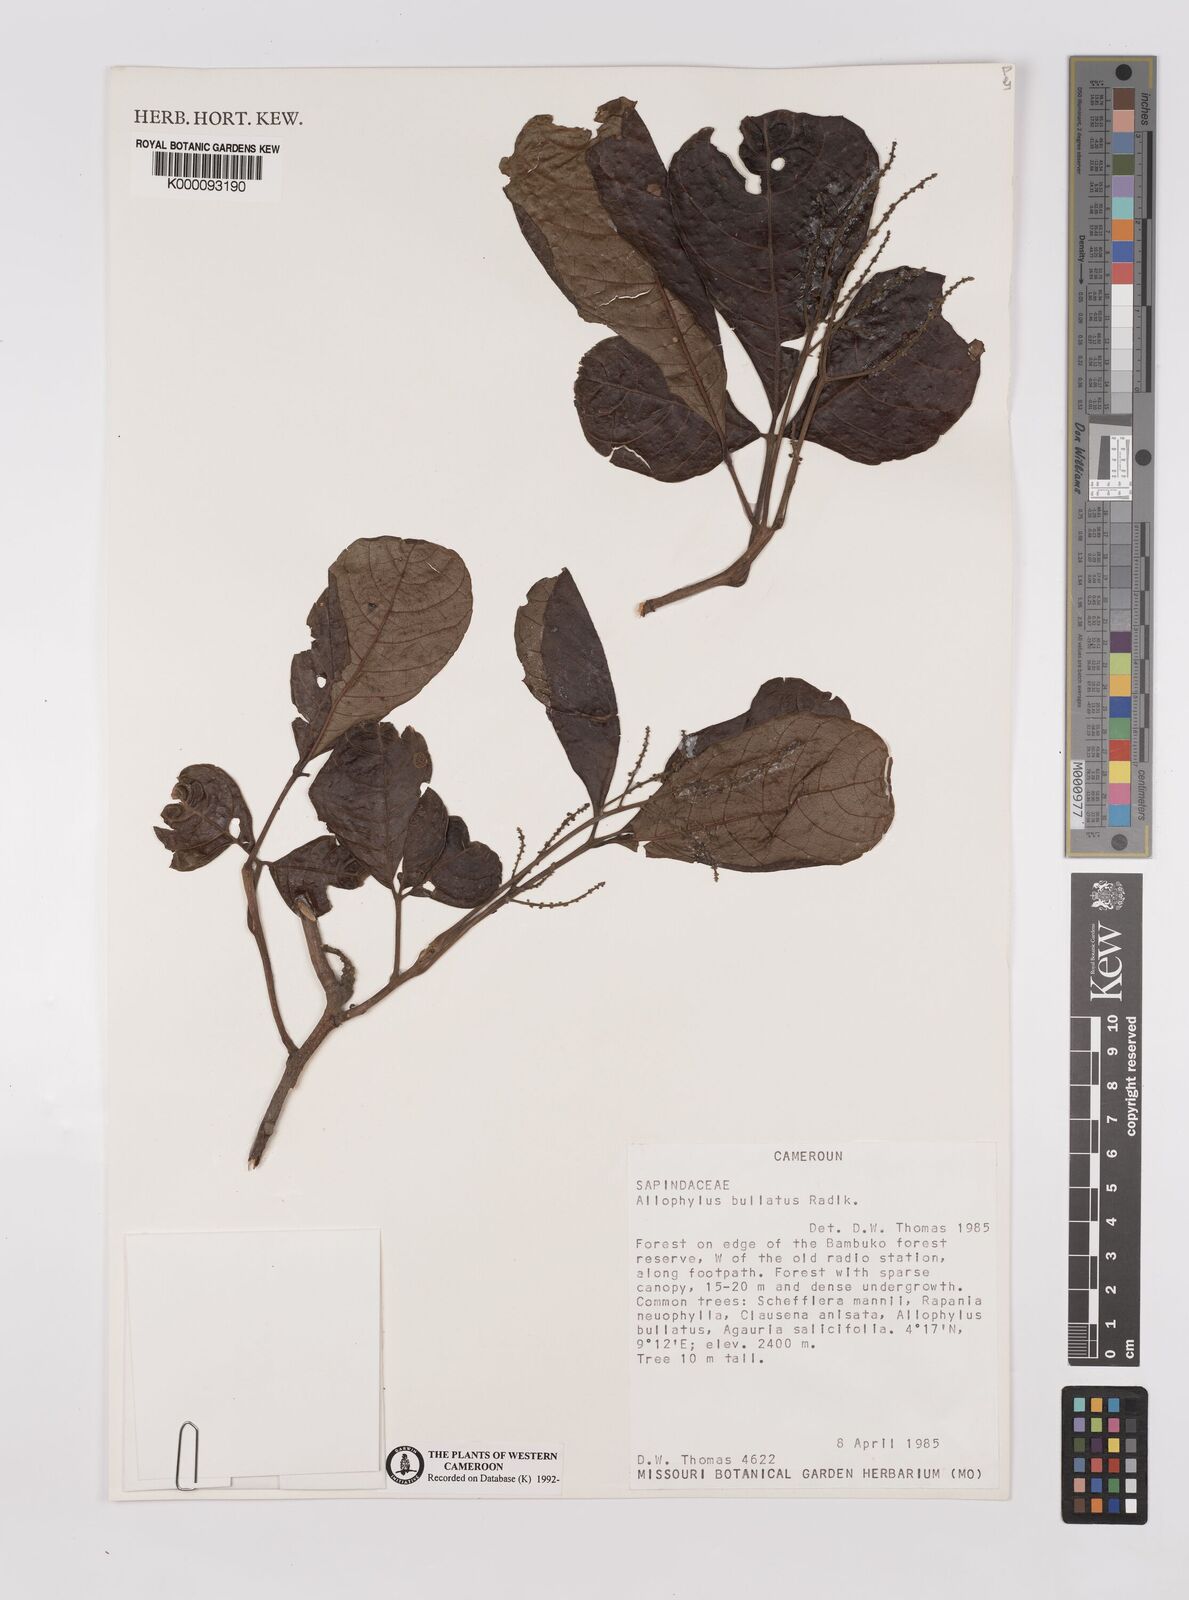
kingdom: Plantae
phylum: Tracheophyta
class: Magnoliopsida
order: Sapindales
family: Sapindaceae
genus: Allophylus
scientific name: Allophylus bullatus
